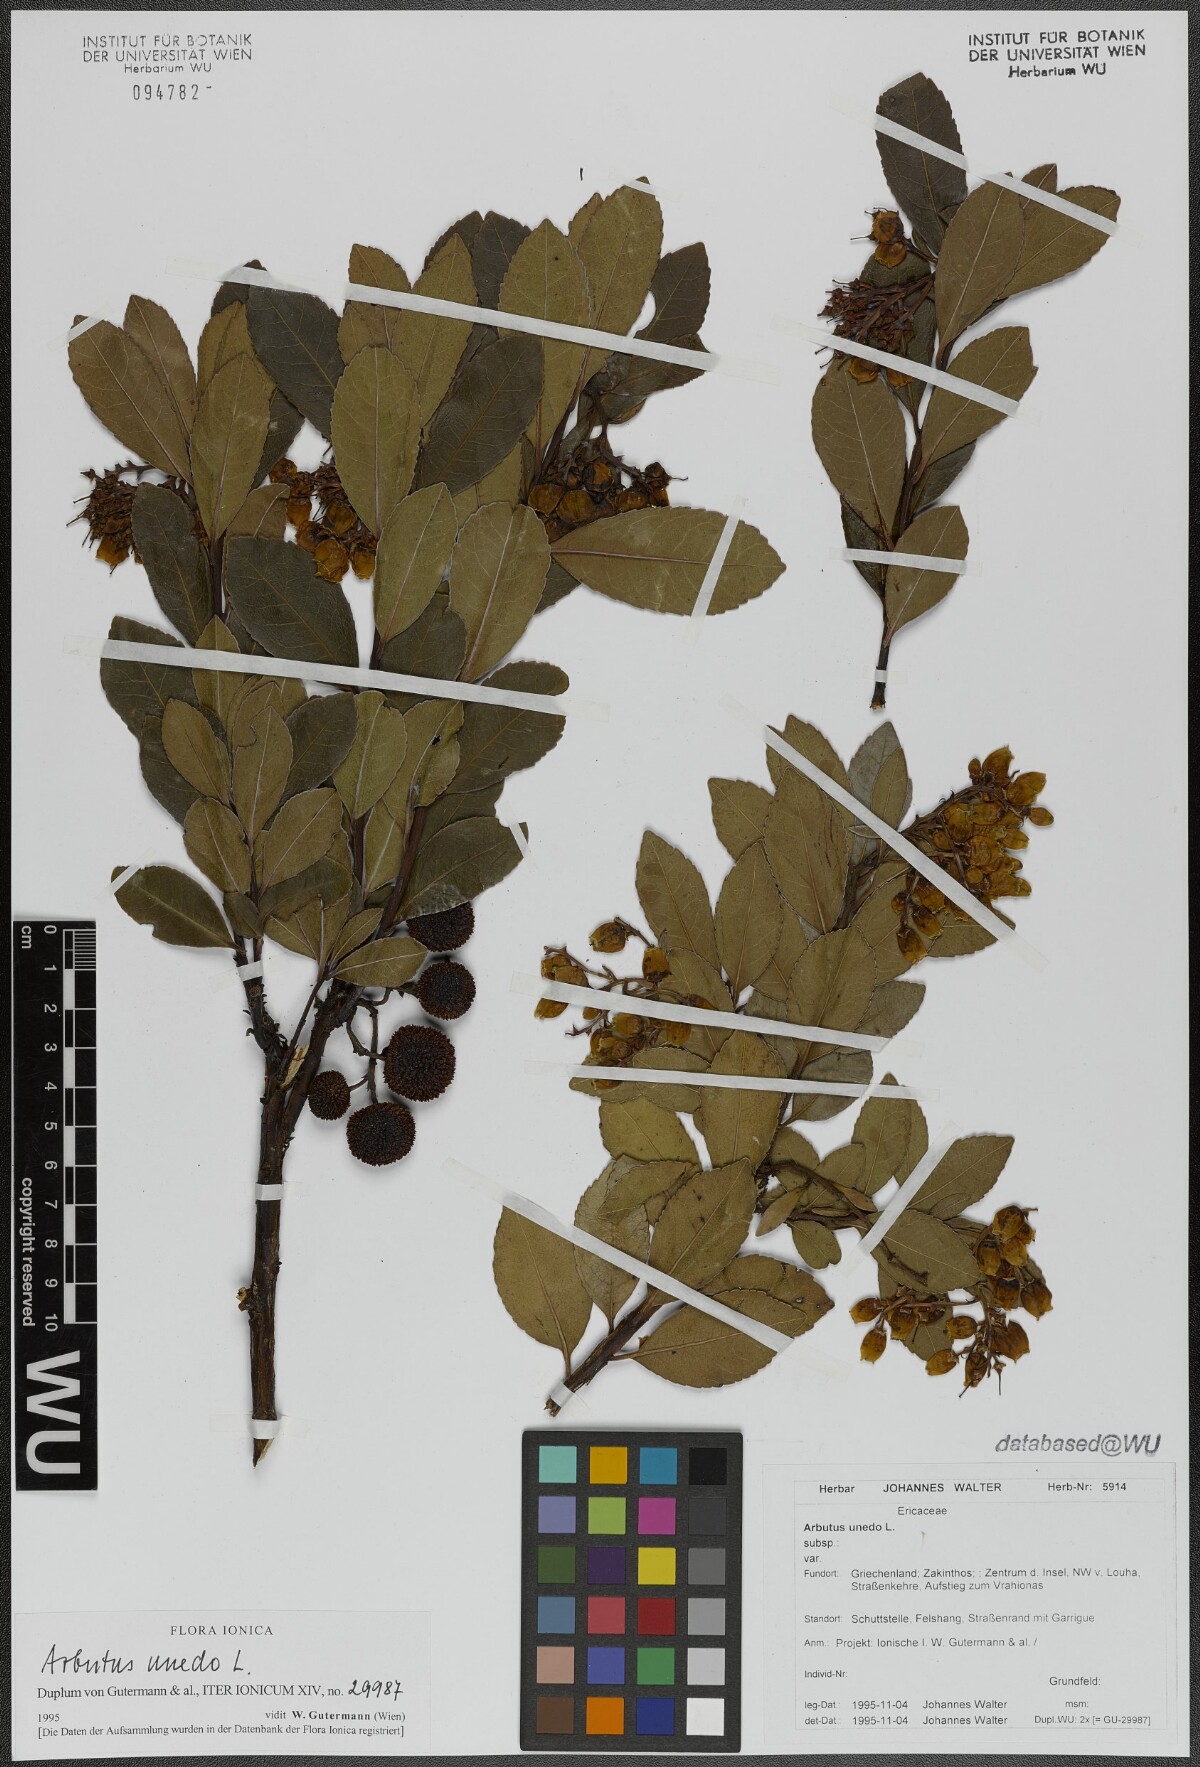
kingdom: Plantae
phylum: Tracheophyta
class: Magnoliopsida
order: Ericales
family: Ericaceae
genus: Arbutus
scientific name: Arbutus unedo
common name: Strawberry-tree
